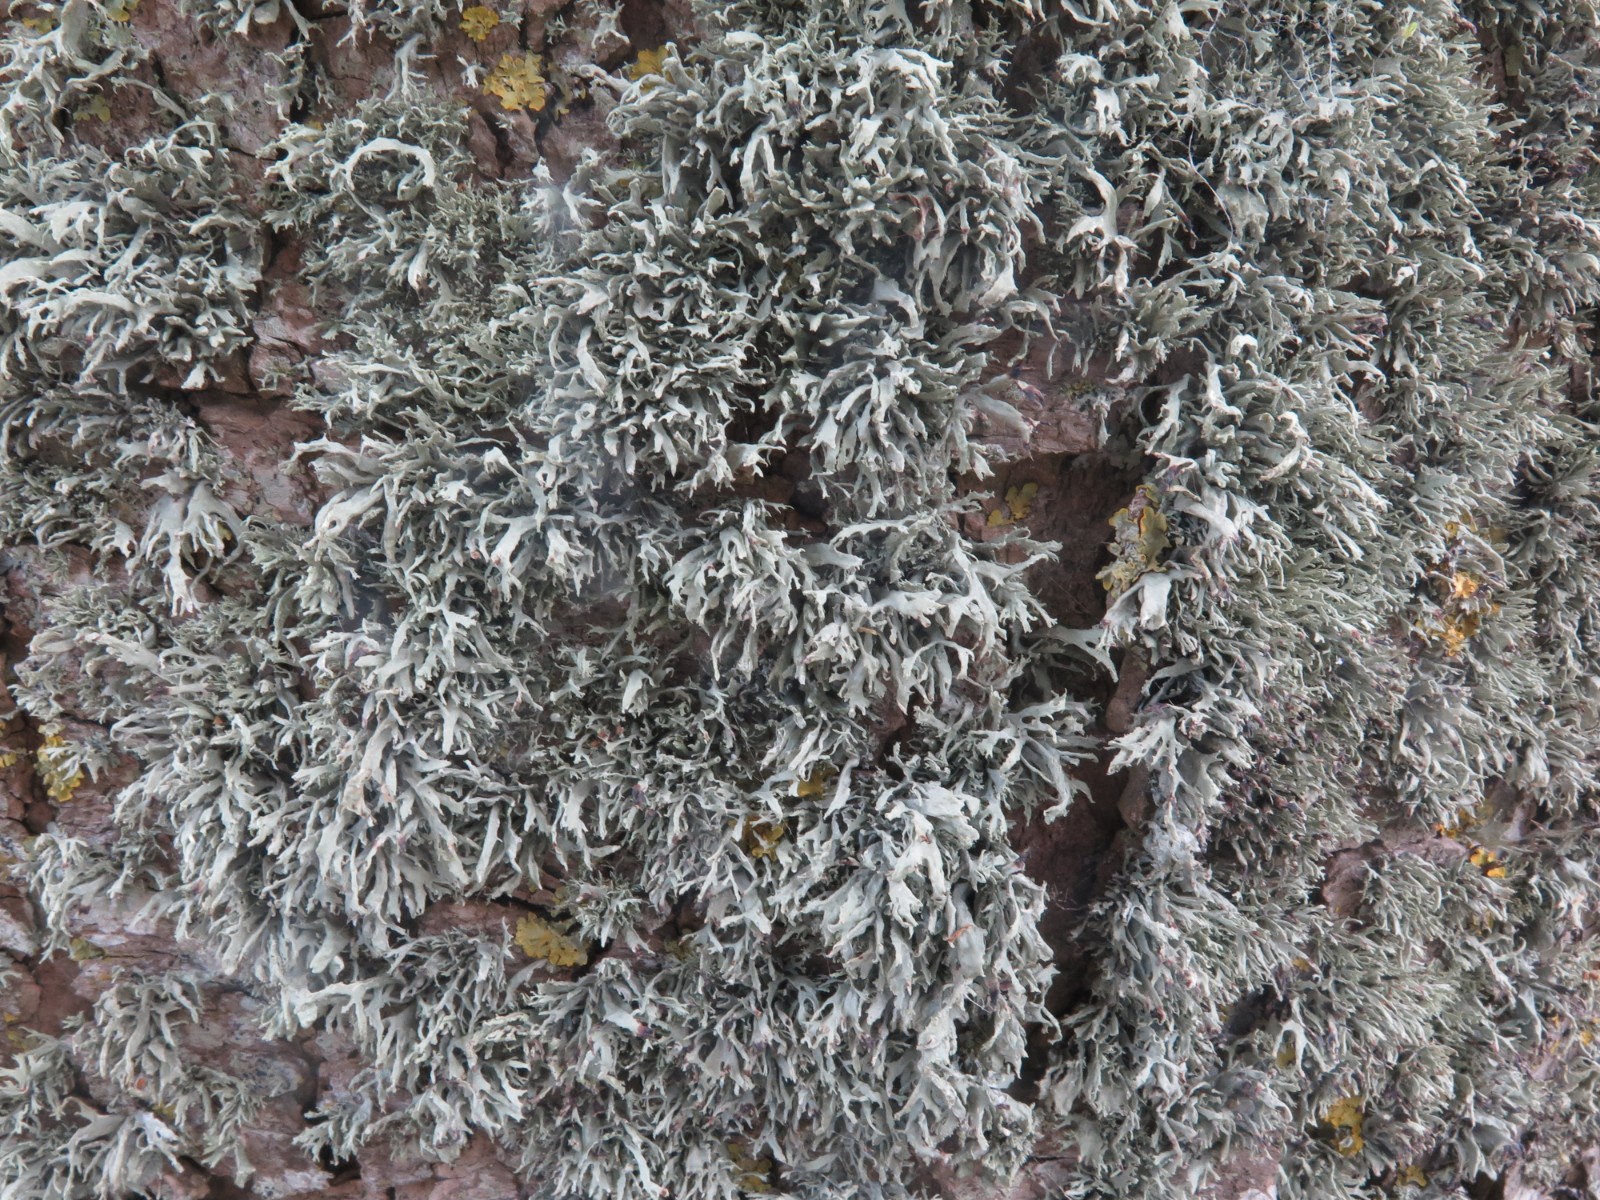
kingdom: Fungi
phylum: Ascomycota
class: Lecanoromycetes
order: Lecanorales
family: Parmeliaceae
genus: Evernia
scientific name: Evernia prunastri
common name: almindelig slåenlav
